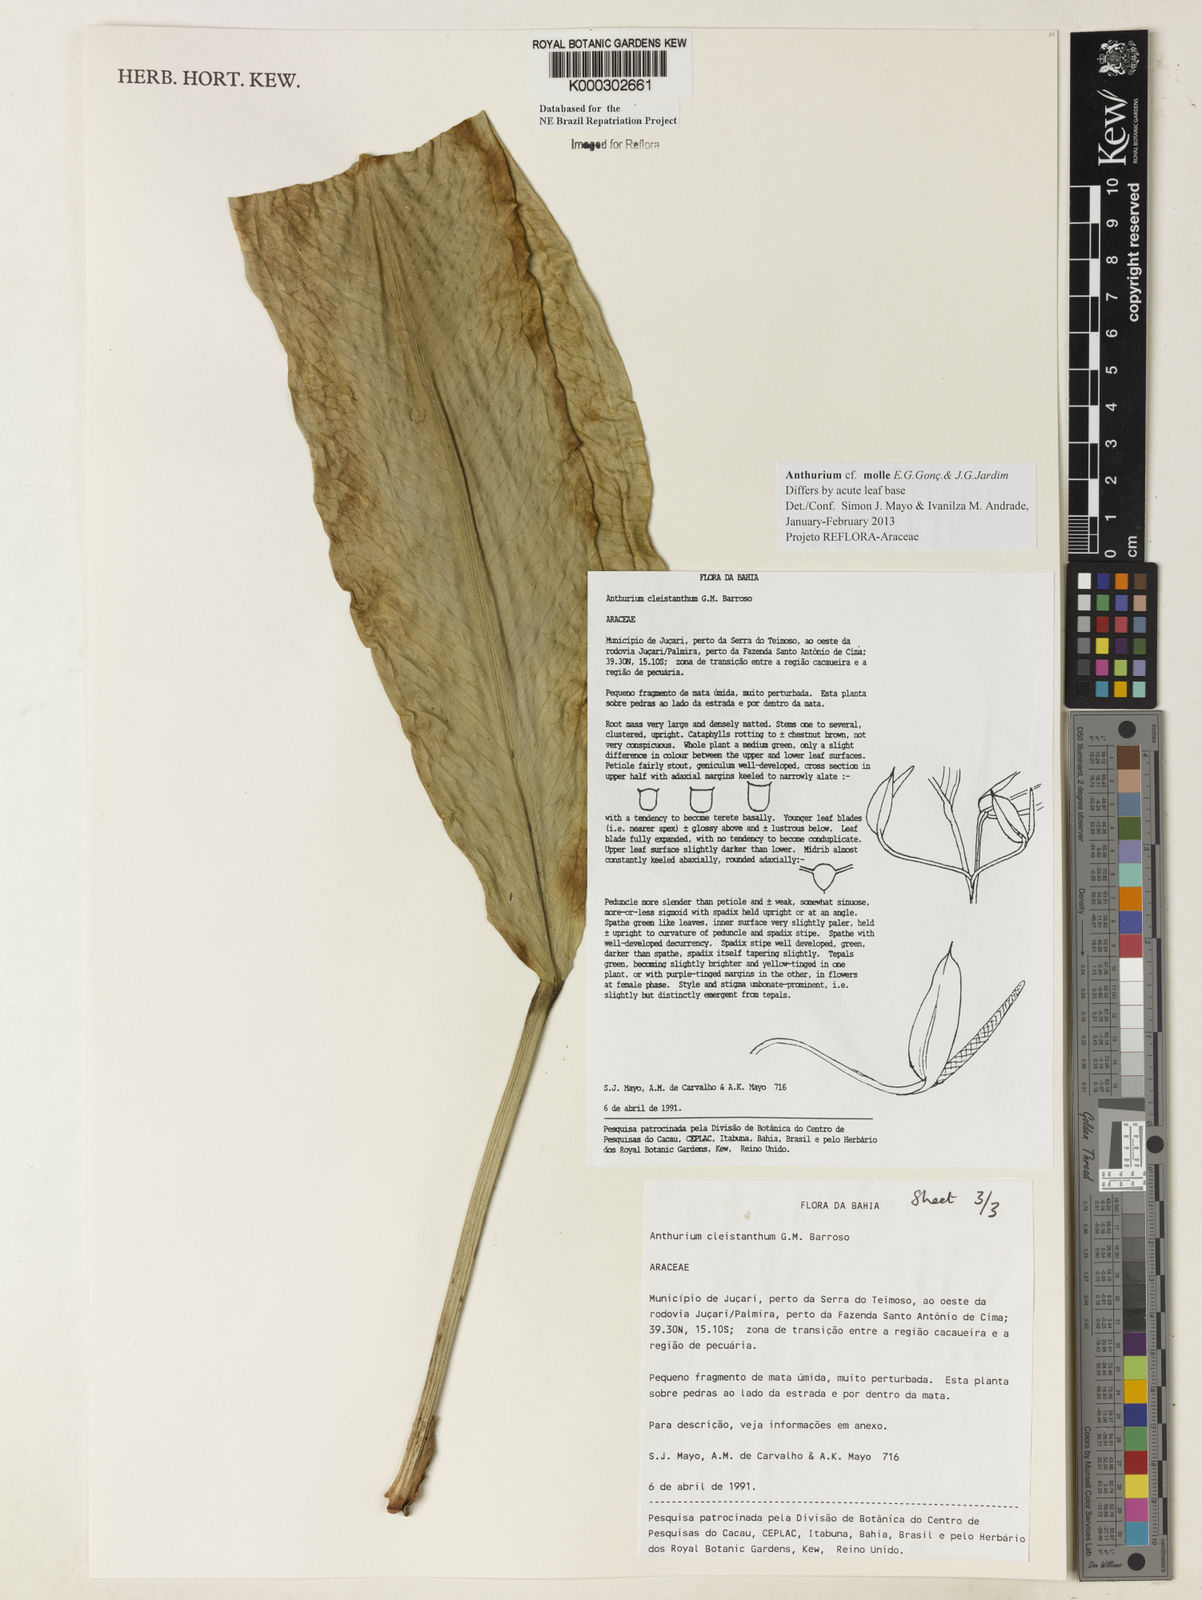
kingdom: Plantae
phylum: Tracheophyta
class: Liliopsida
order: Alismatales
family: Araceae
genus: Anthurium
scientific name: Anthurium cleistanthum
